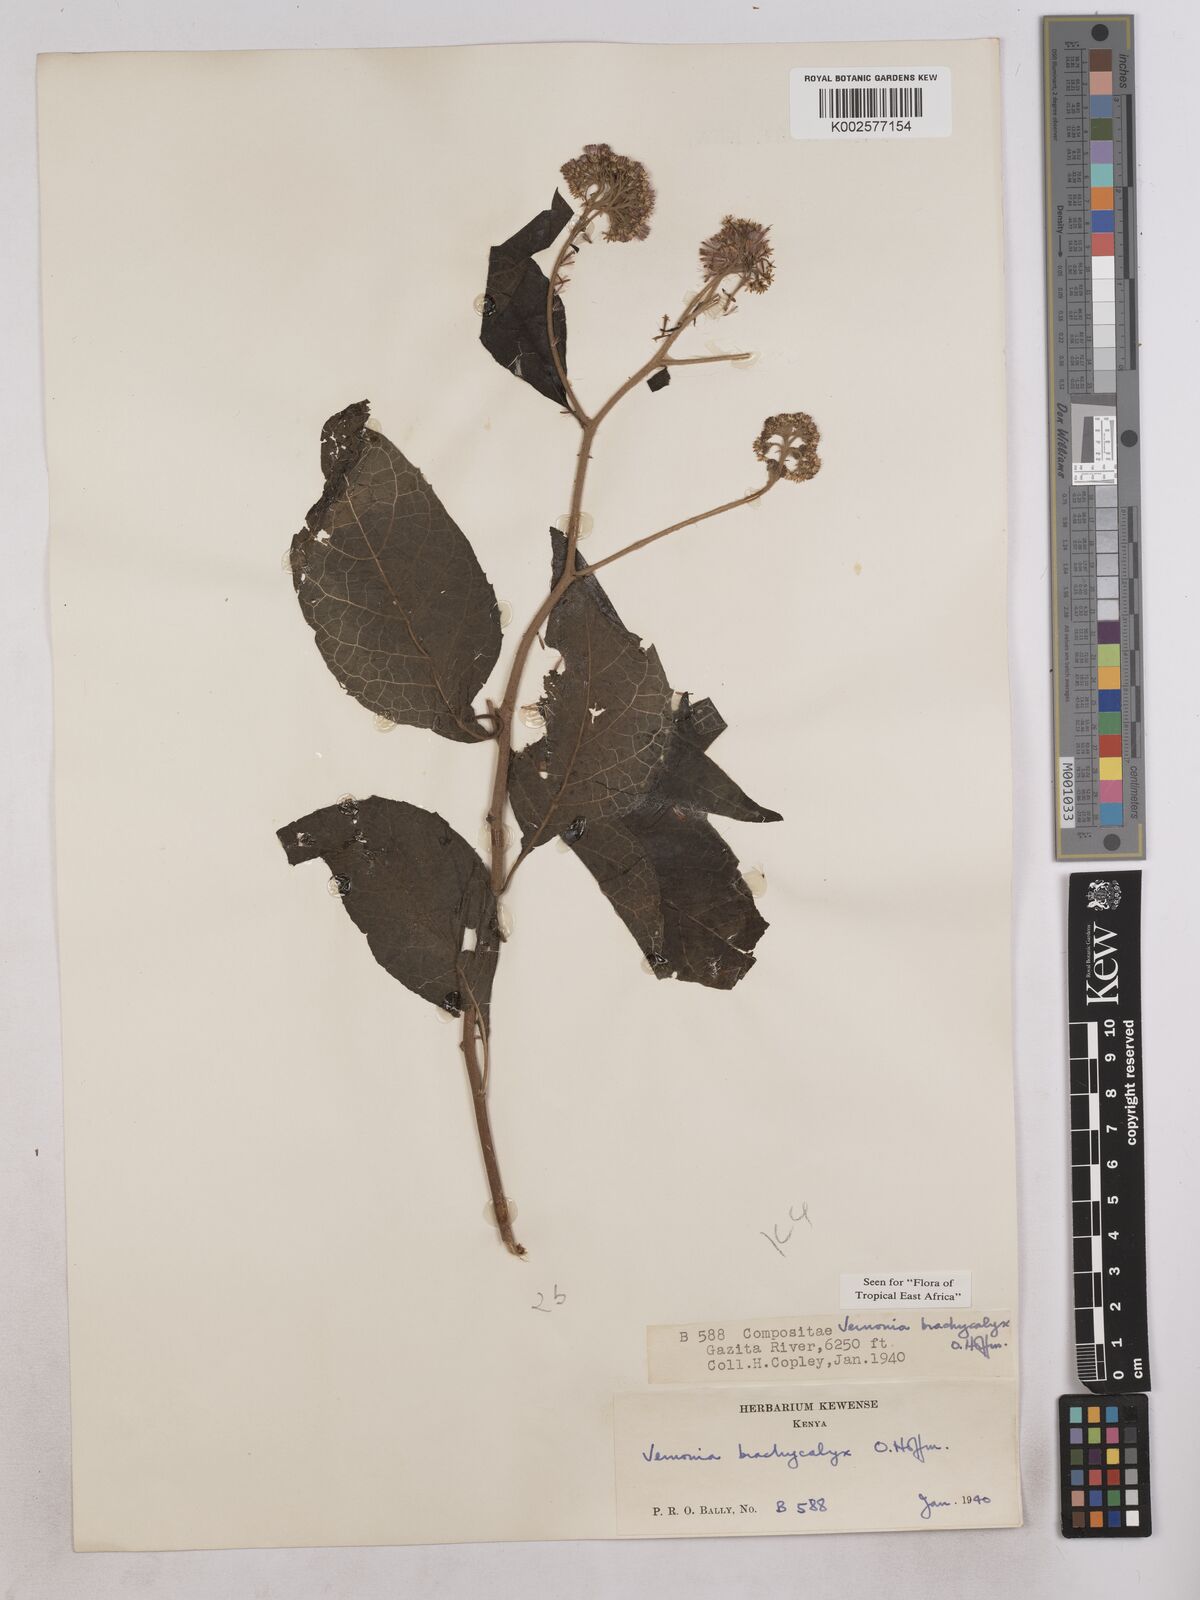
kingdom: Plantae
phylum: Tracheophyta
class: Magnoliopsida
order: Asterales
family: Asteraceae
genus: Hoffmannanthus
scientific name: Hoffmannanthus abbotianus
